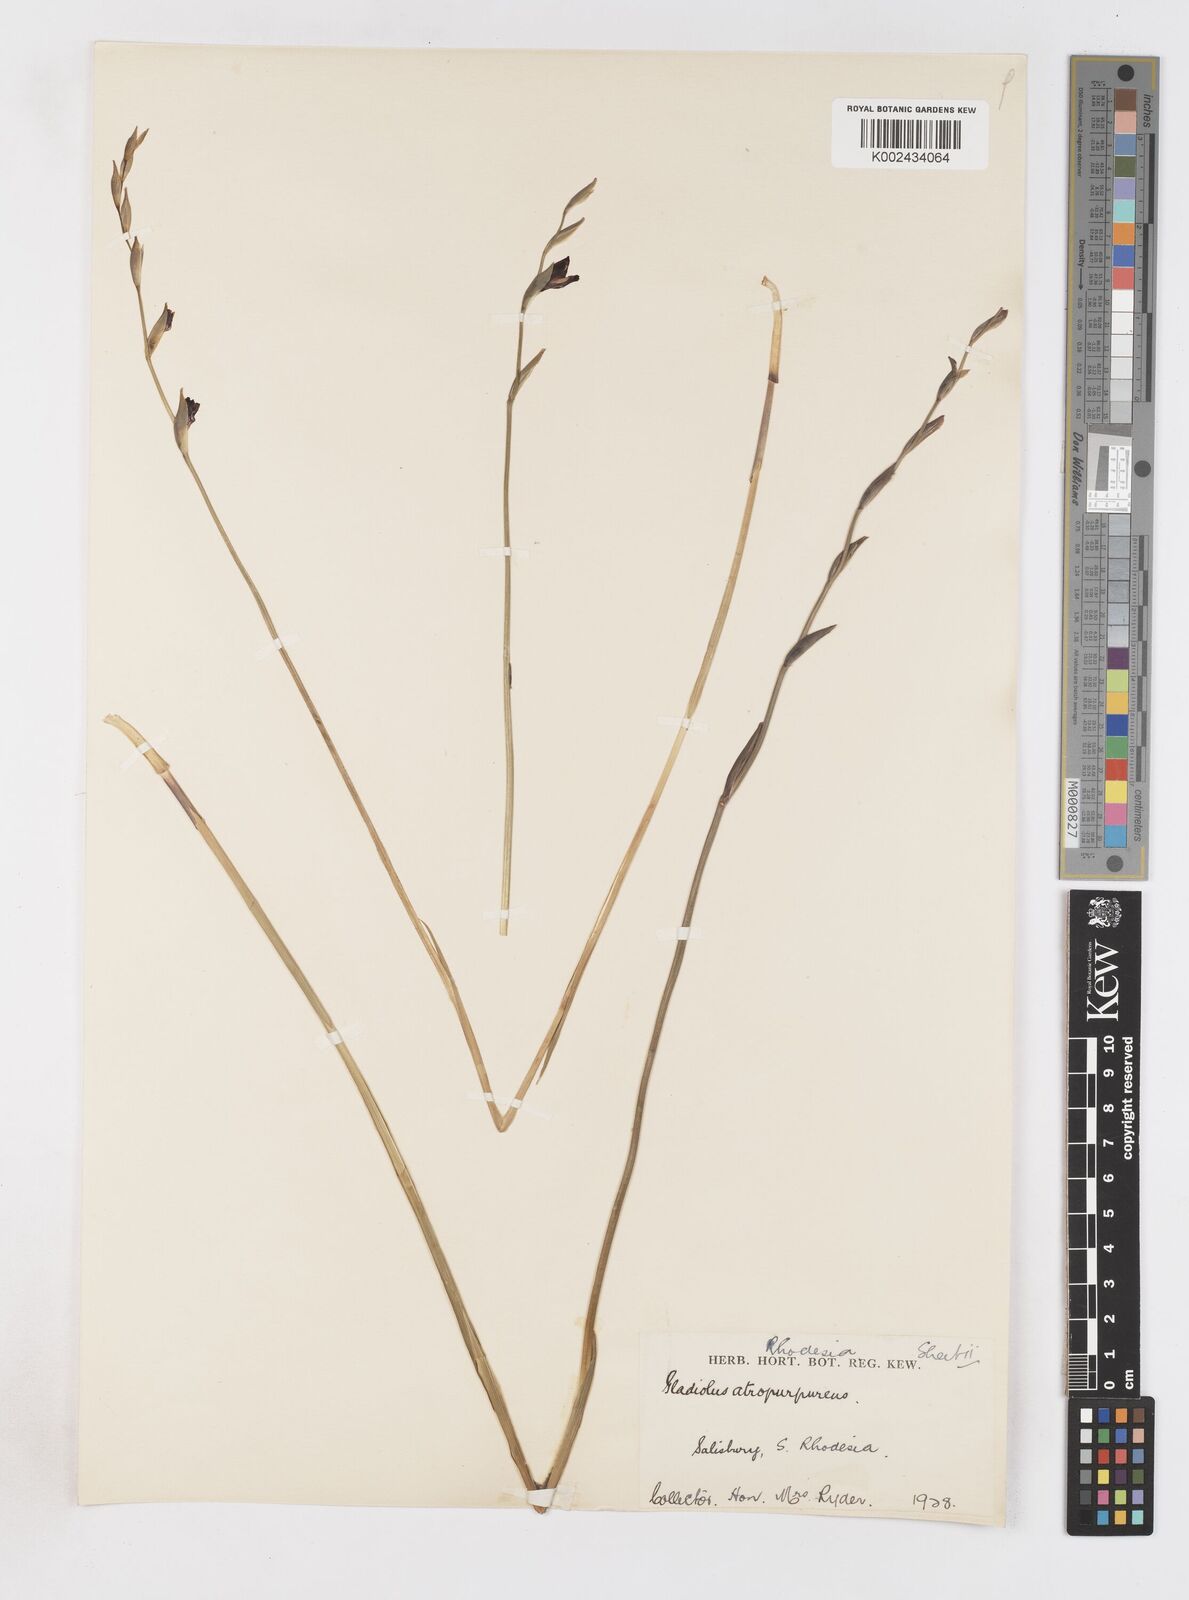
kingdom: Plantae
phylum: Tracheophyta
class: Liliopsida
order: Asparagales
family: Iridaceae
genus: Gladiolus
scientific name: Gladiolus atropurpureus
